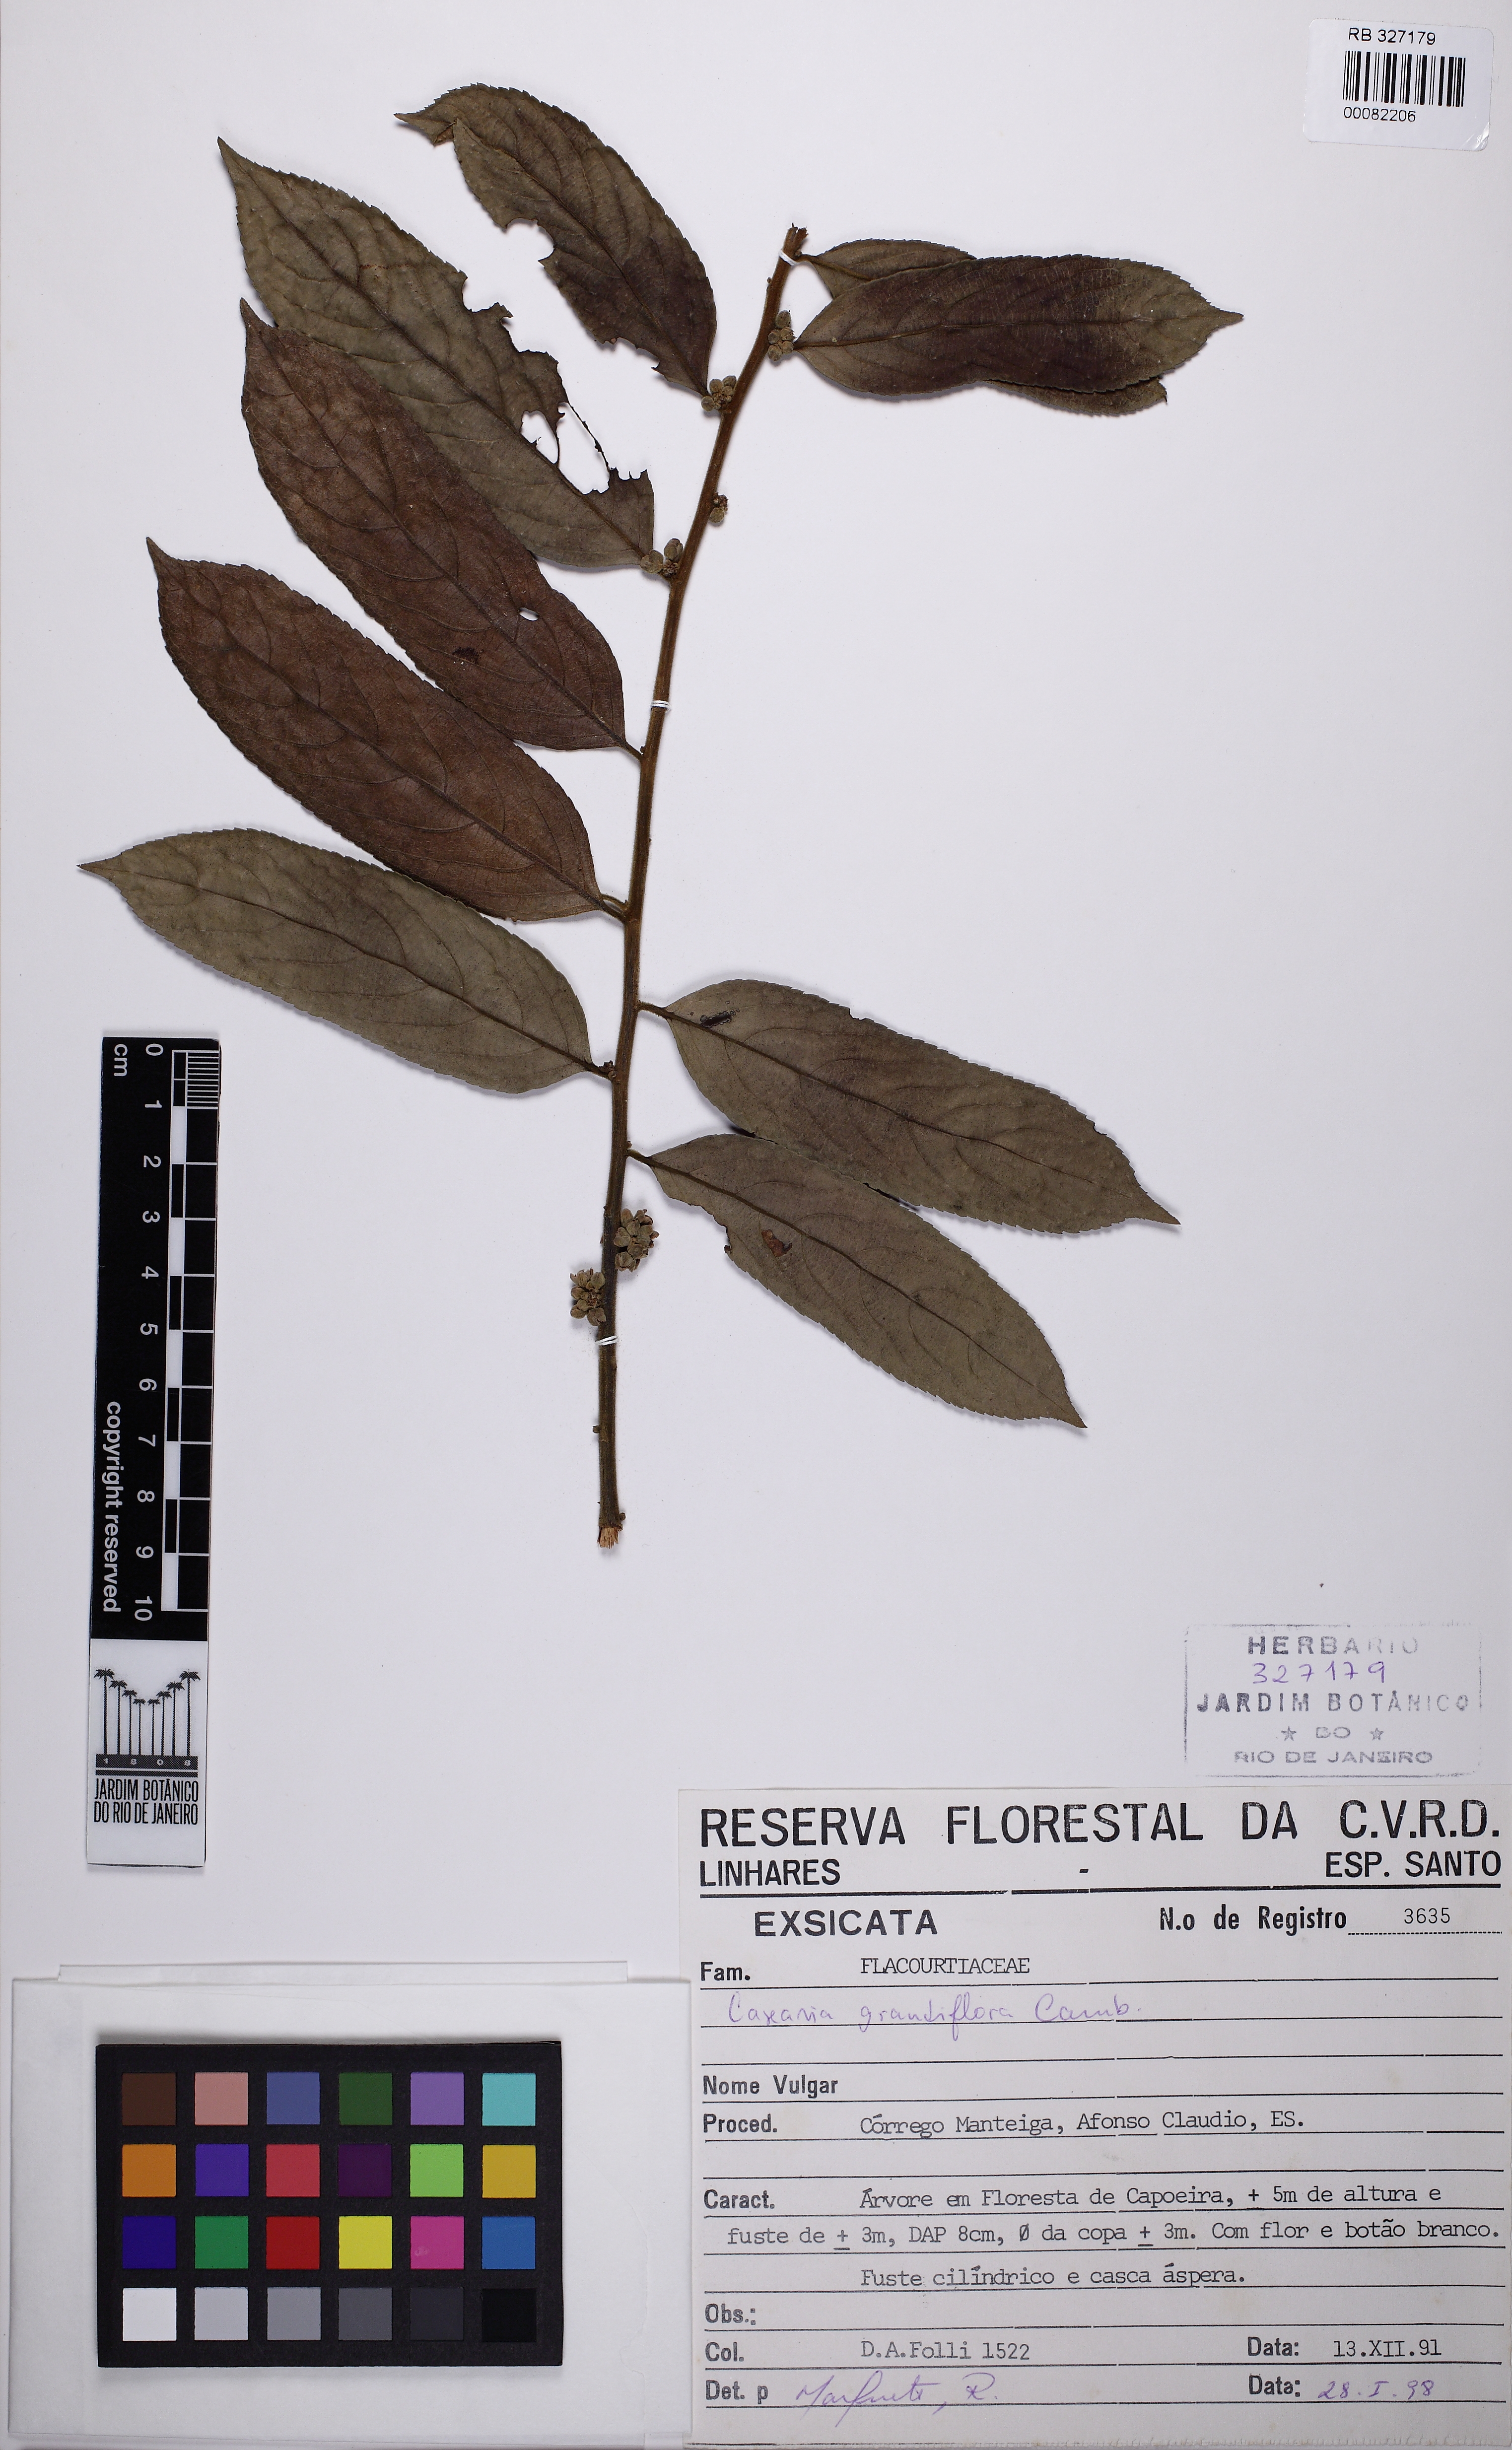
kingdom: Plantae
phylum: Tracheophyta
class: Magnoliopsida
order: Malpighiales
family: Salicaceae
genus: Casearia
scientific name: Casearia grandiflora
